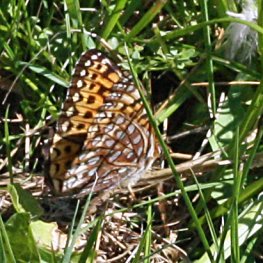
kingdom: Animalia
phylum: Arthropoda
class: Insecta
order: Lepidoptera
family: Nymphalidae
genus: Speyeria
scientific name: Speyeria atlantis
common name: Atlantis Fritillary
